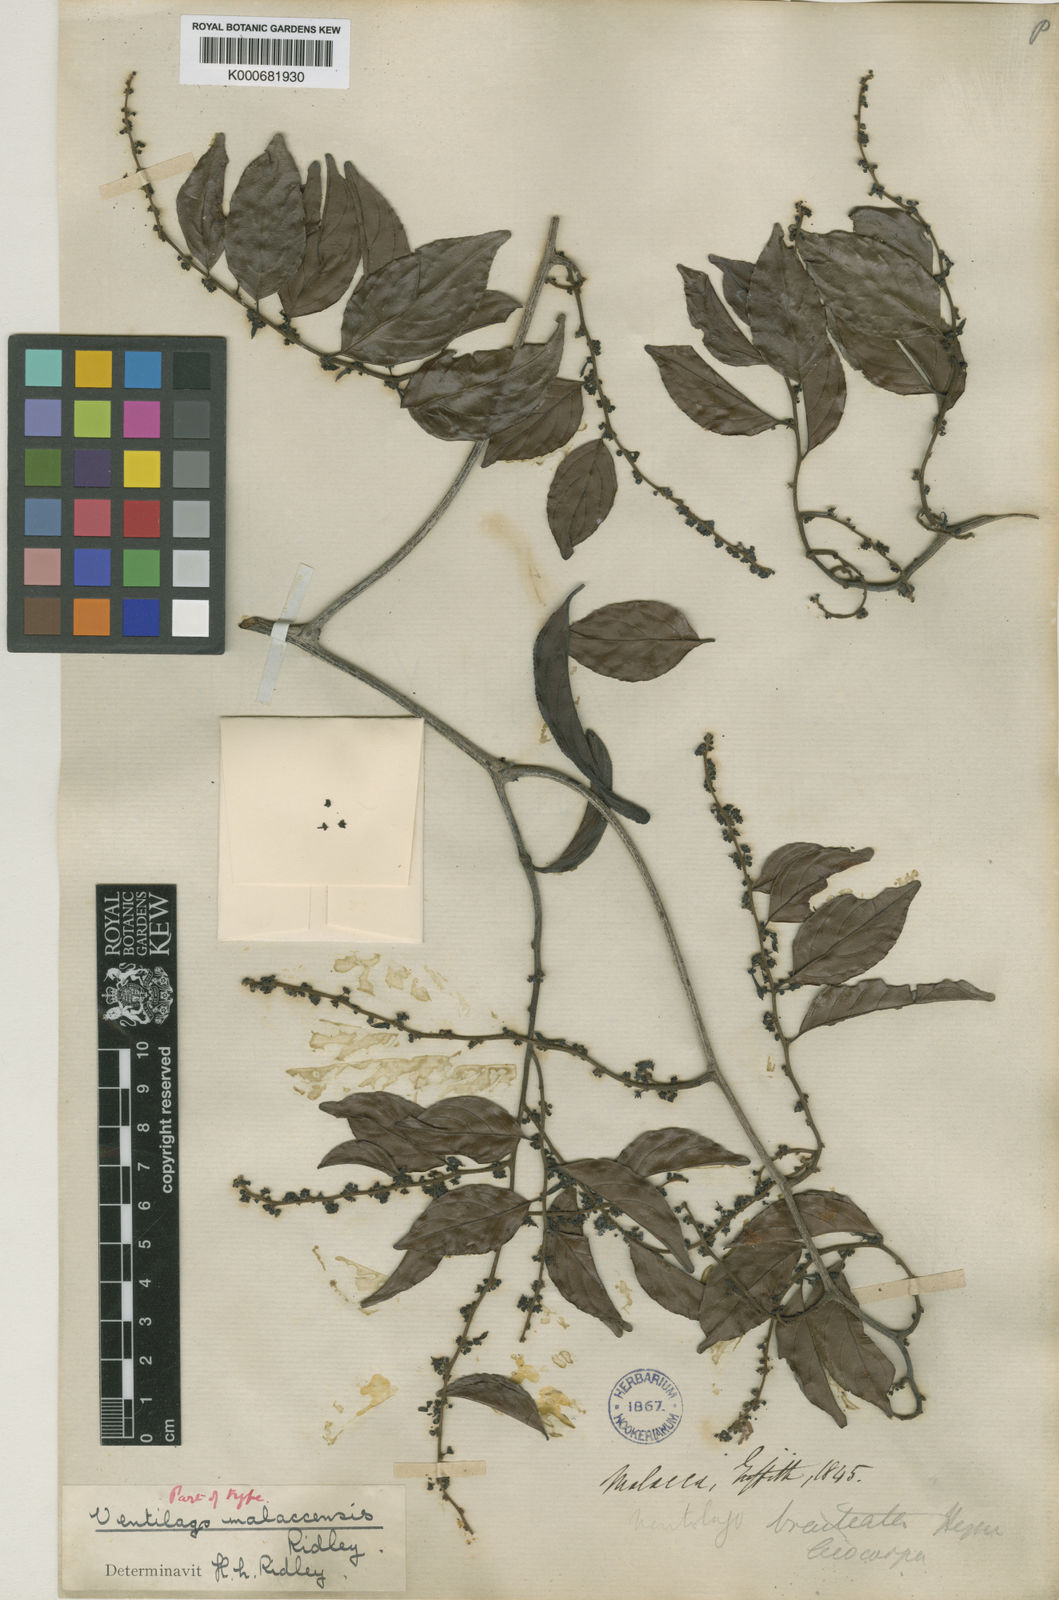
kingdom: Plantae
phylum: Tracheophyta
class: Magnoliopsida
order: Rosales
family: Rhamnaceae
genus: Ventilago
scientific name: Ventilago malaccensis
